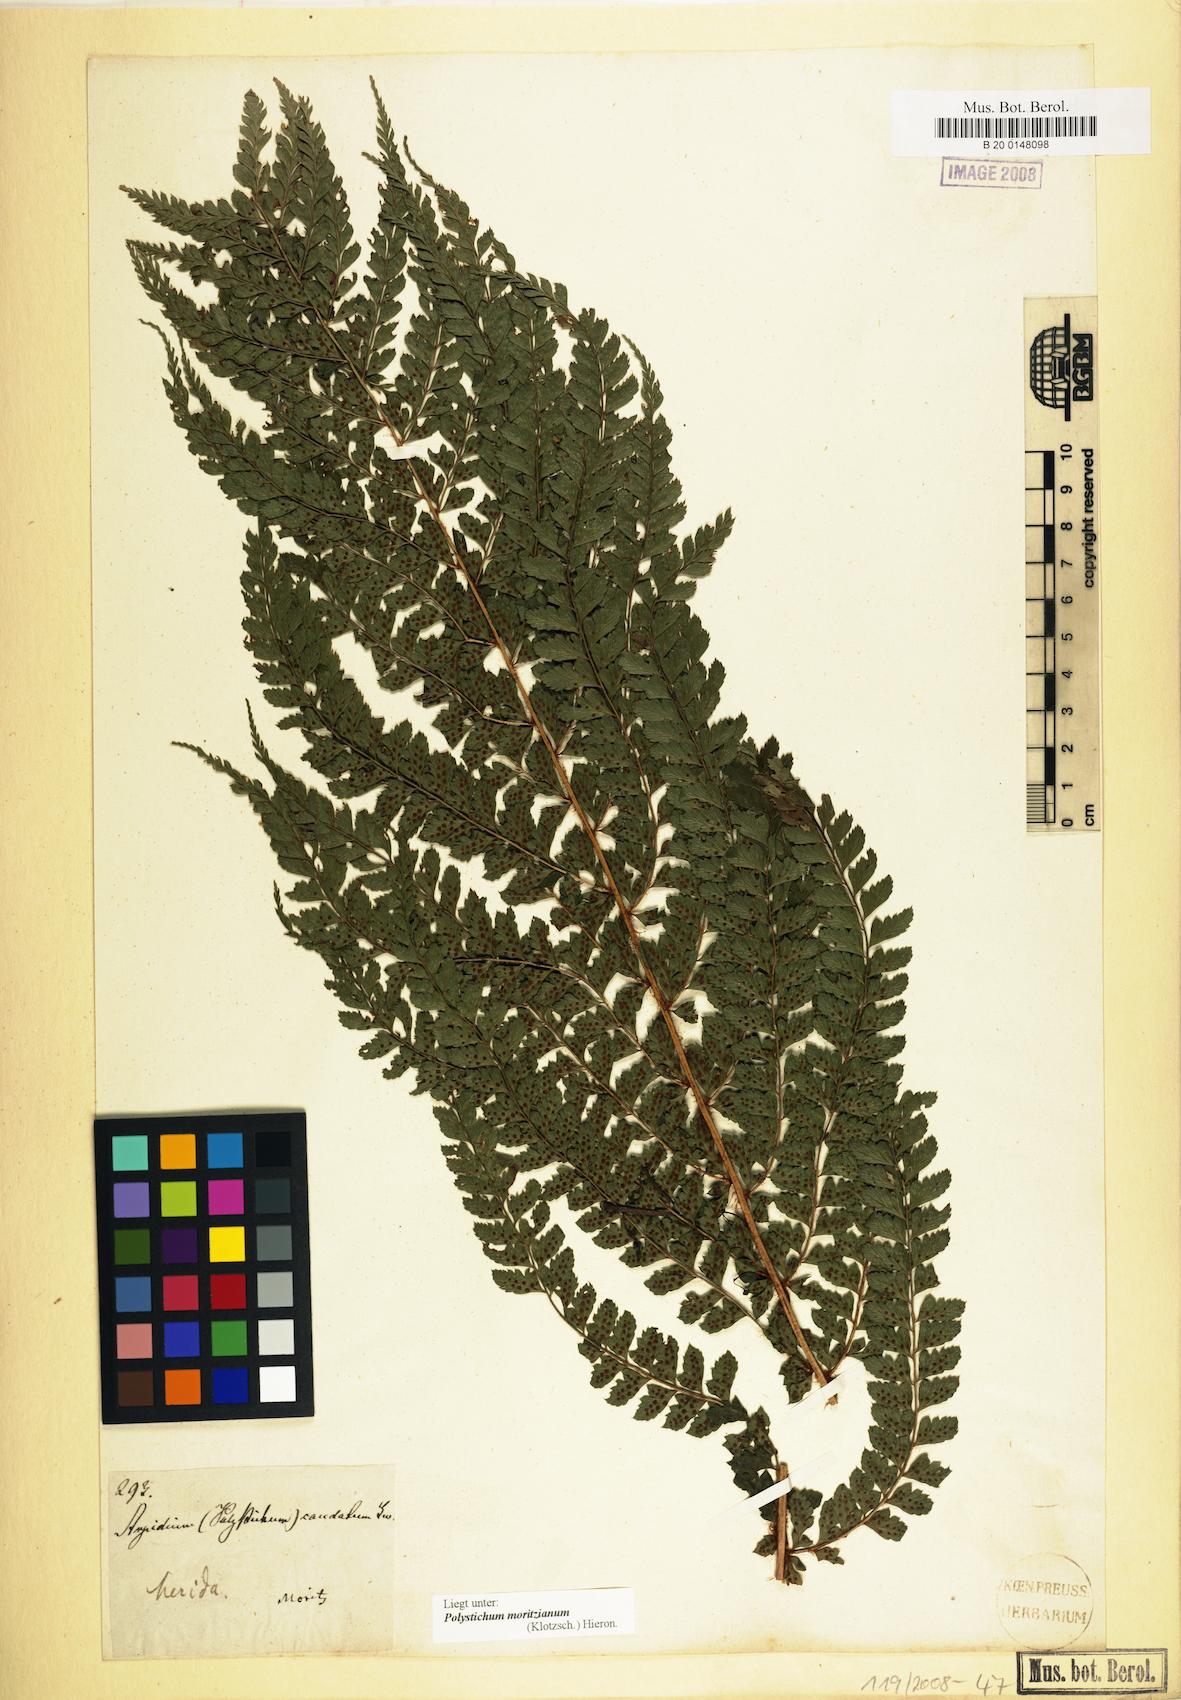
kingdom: Plantae
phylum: Tracheophyta
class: Polypodiopsida
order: Polypodiales
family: Dryopteridaceae
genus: Polystichum
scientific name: Polystichum muricatum
